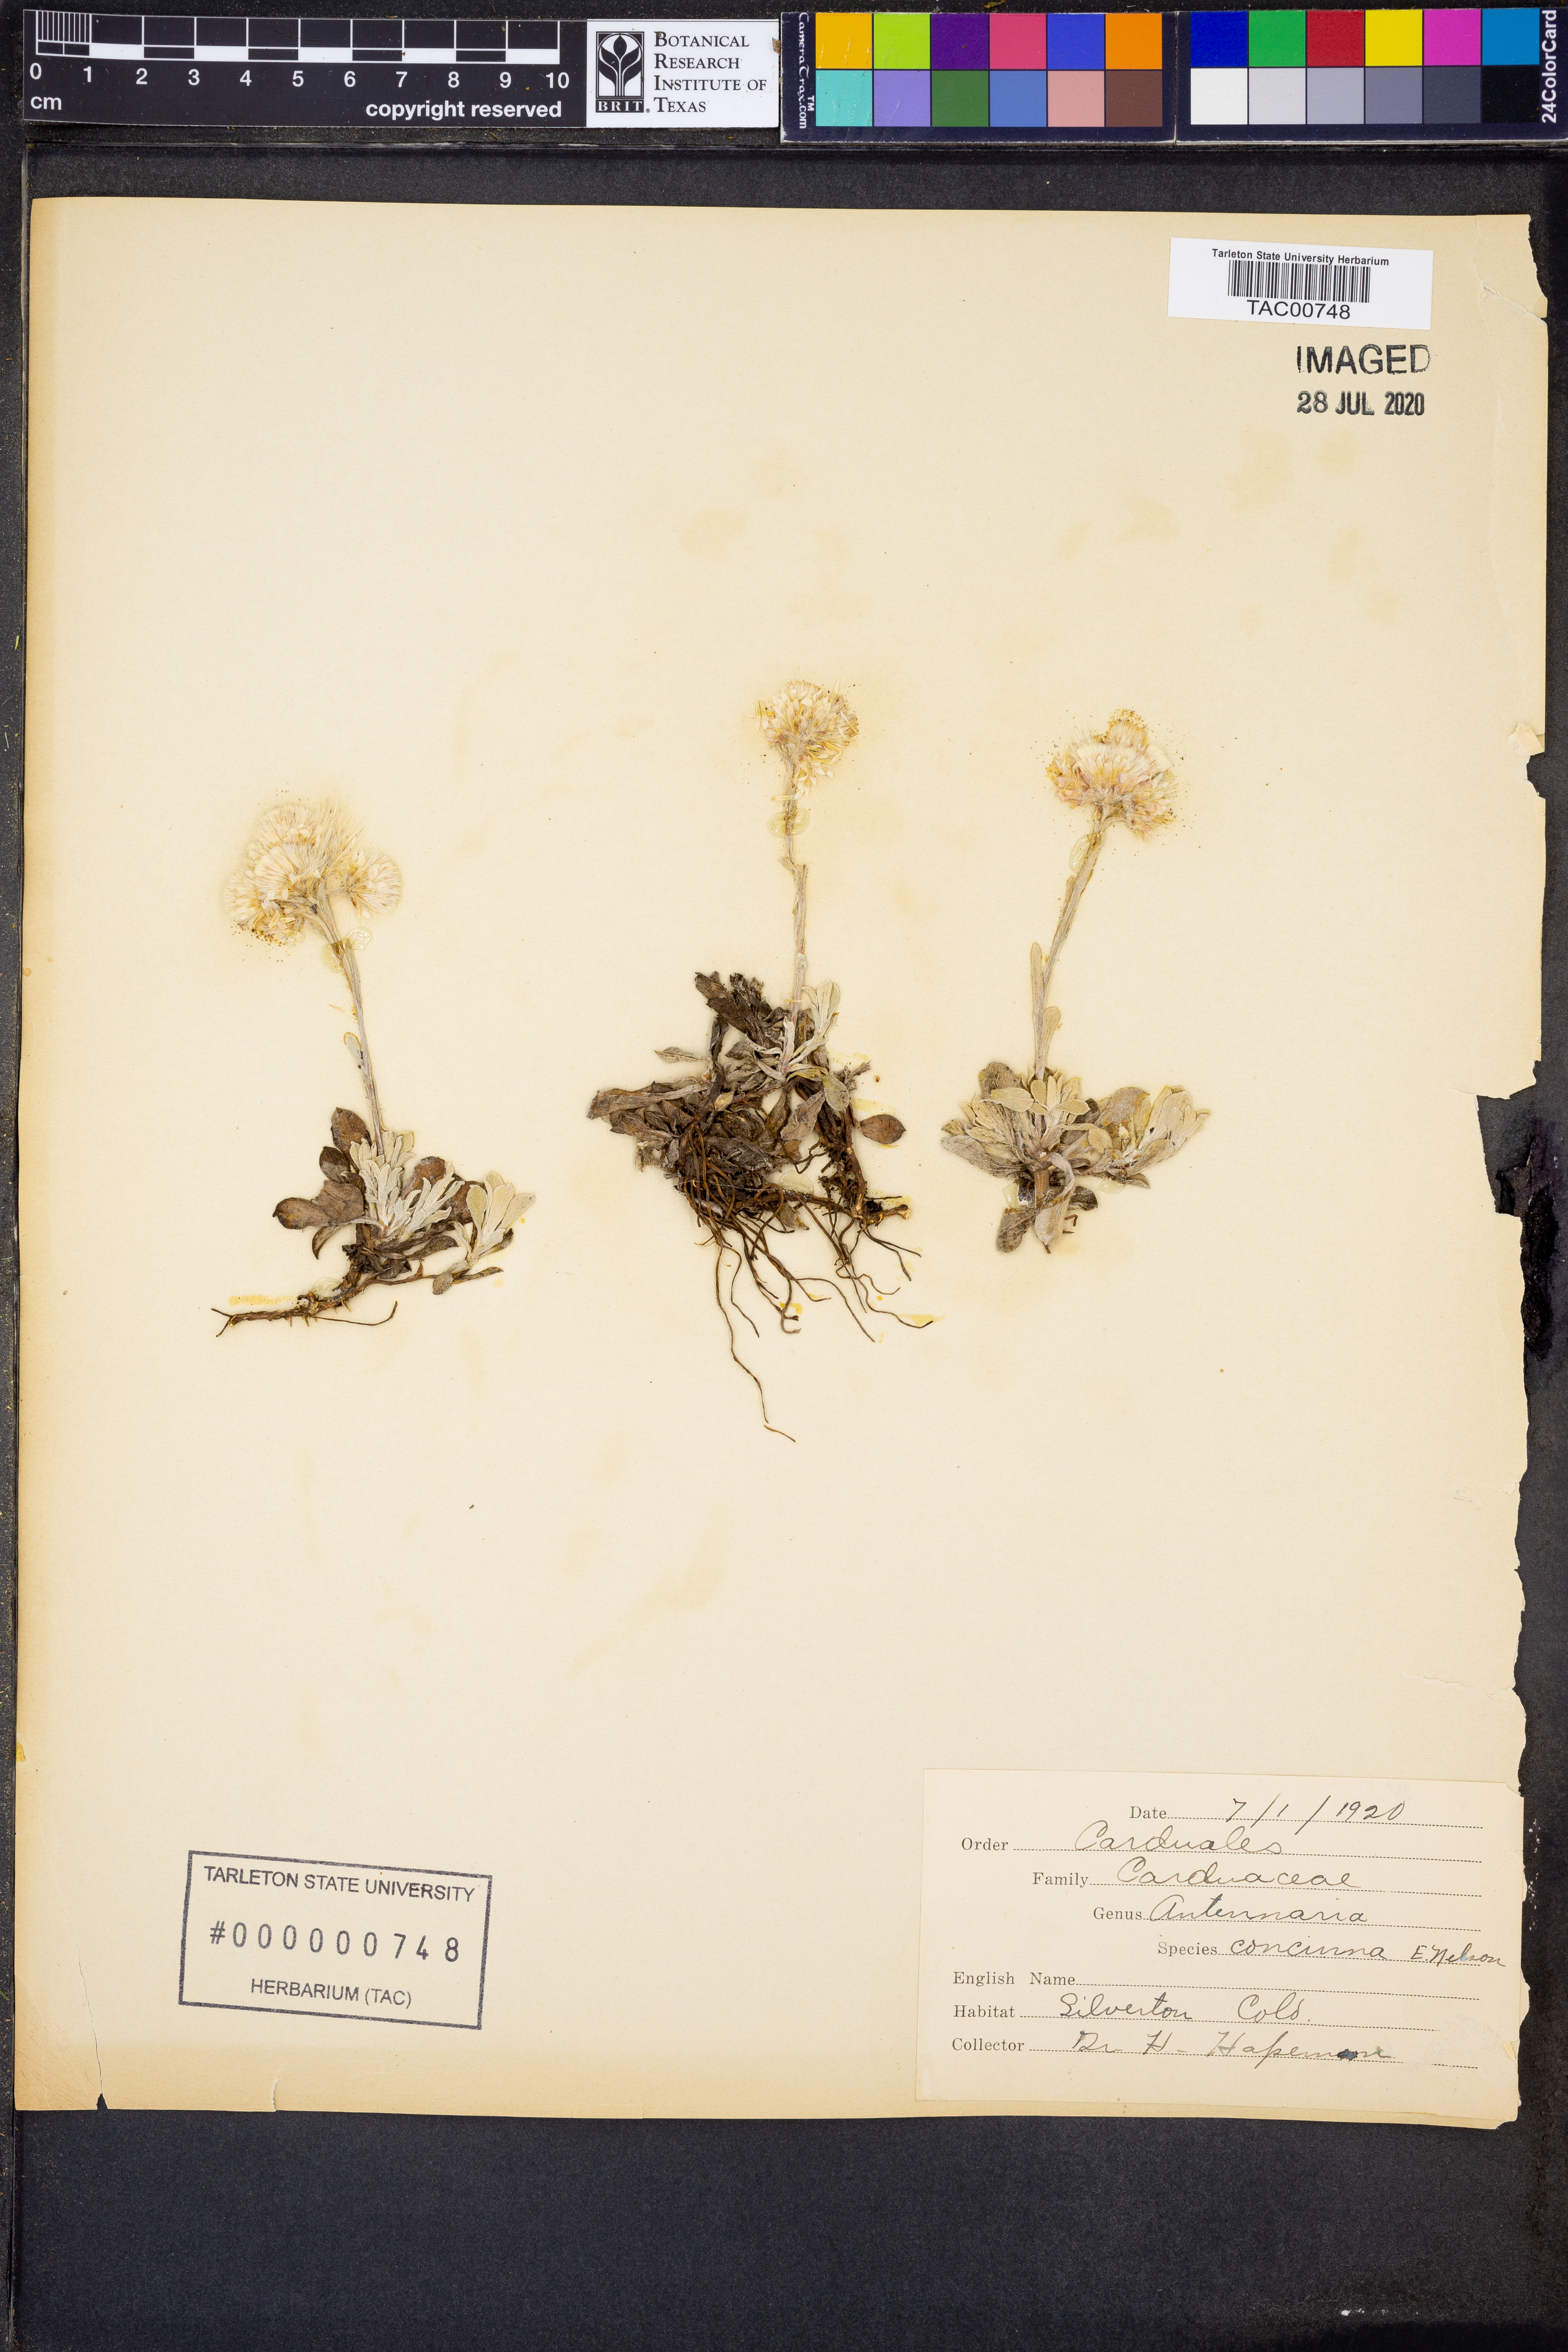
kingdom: Plantae
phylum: Tracheophyta
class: Magnoliopsida
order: Asterales
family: Asteraceae
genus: Antennaria
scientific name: Antennaria rosea
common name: Rosy pussytoes
